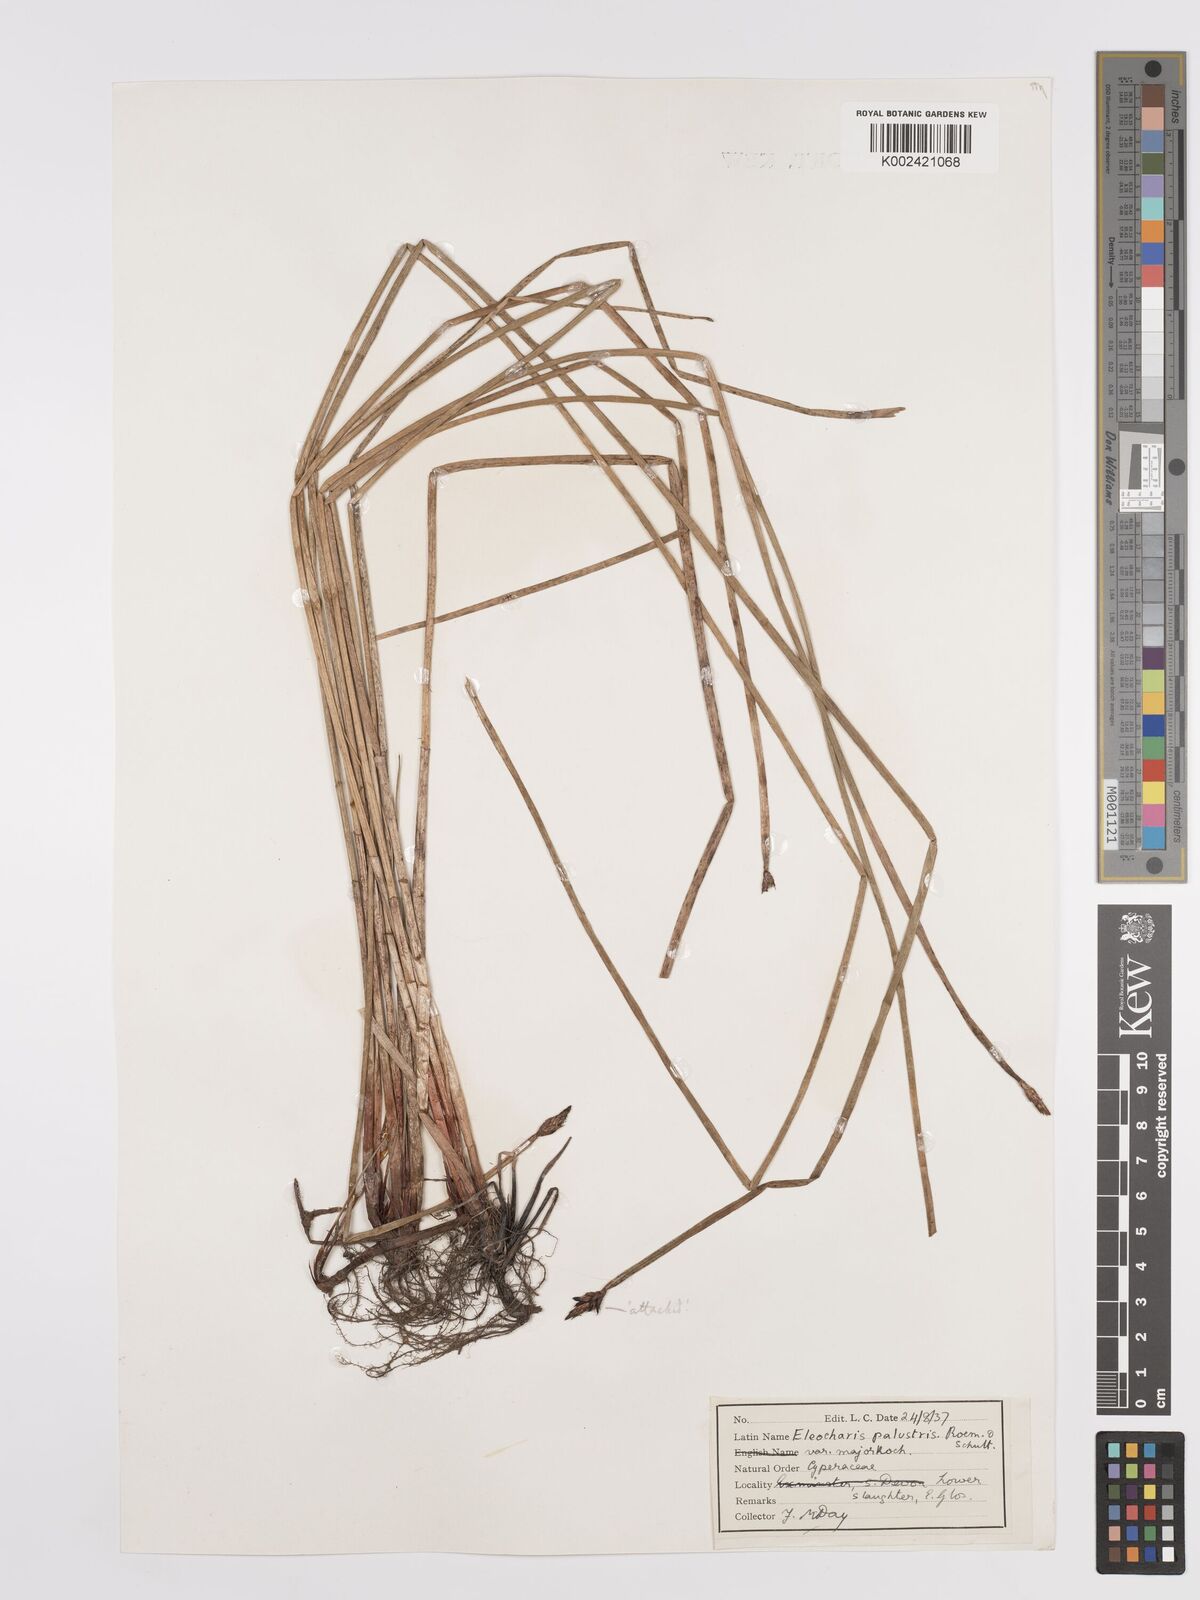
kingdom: Plantae
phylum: Tracheophyta
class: Liliopsida
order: Poales
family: Cyperaceae
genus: Eleocharis
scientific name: Eleocharis palustris
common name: Common spike-rush
